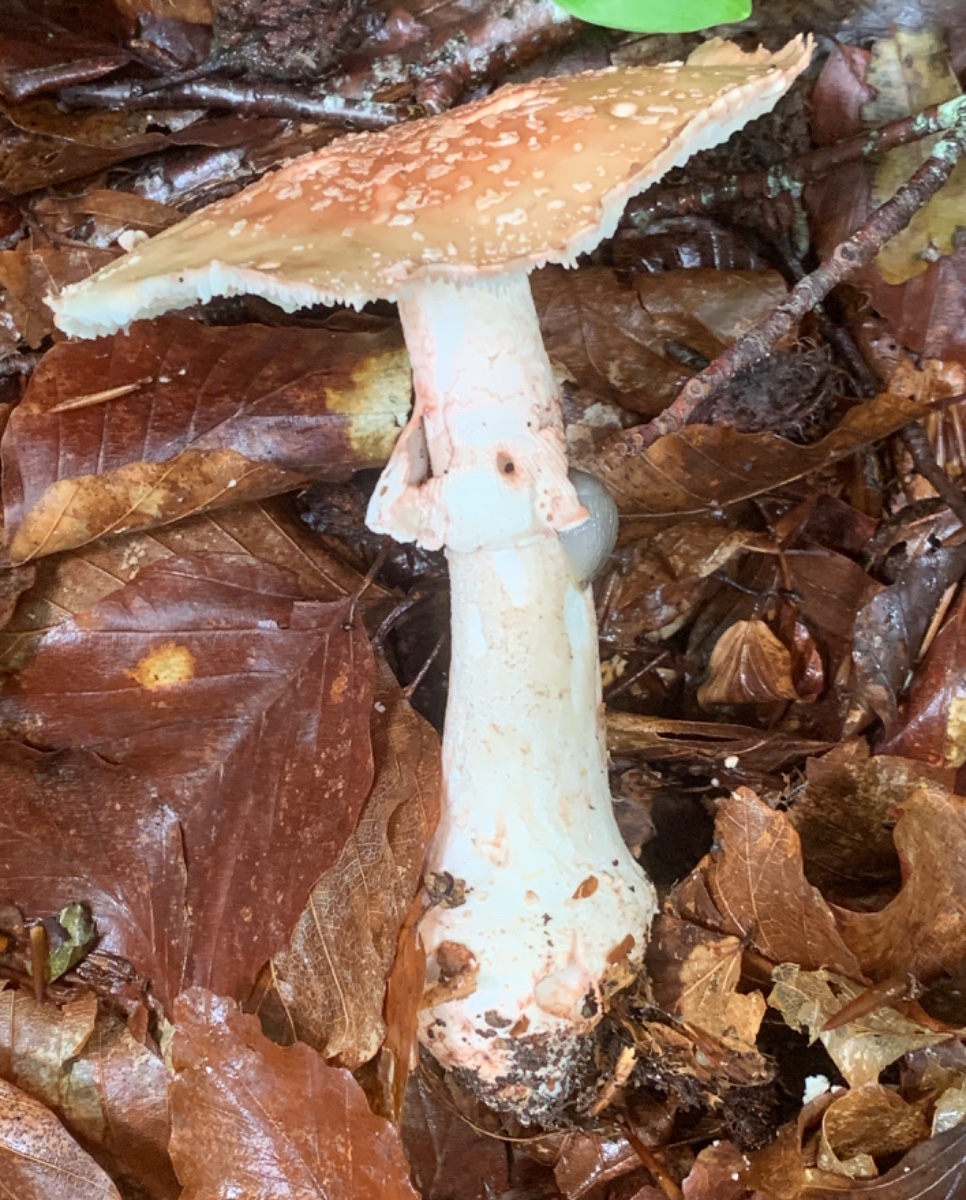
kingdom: Fungi
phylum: Basidiomycota
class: Agaricomycetes
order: Agaricales
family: Amanitaceae
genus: Amanita
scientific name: Amanita rubescens
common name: rødmende fluesvamp
